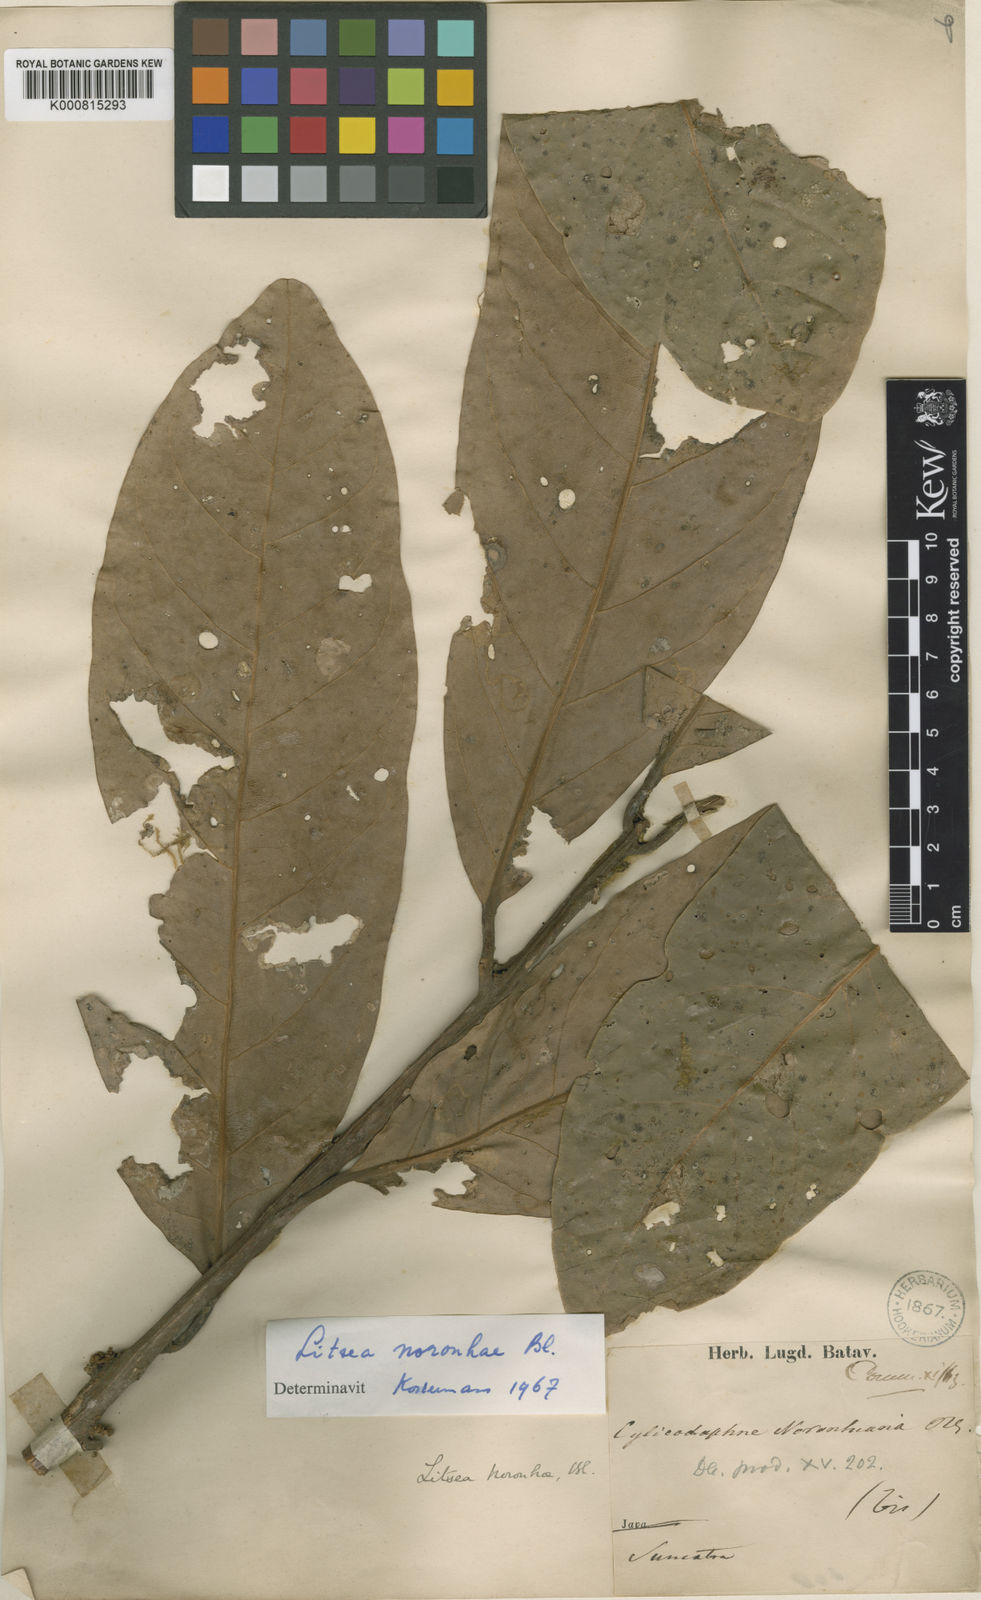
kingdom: Plantae
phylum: Tracheophyta
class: Magnoliopsida
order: Laurales
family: Lauraceae
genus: Litsea
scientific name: Litsea noronhae
